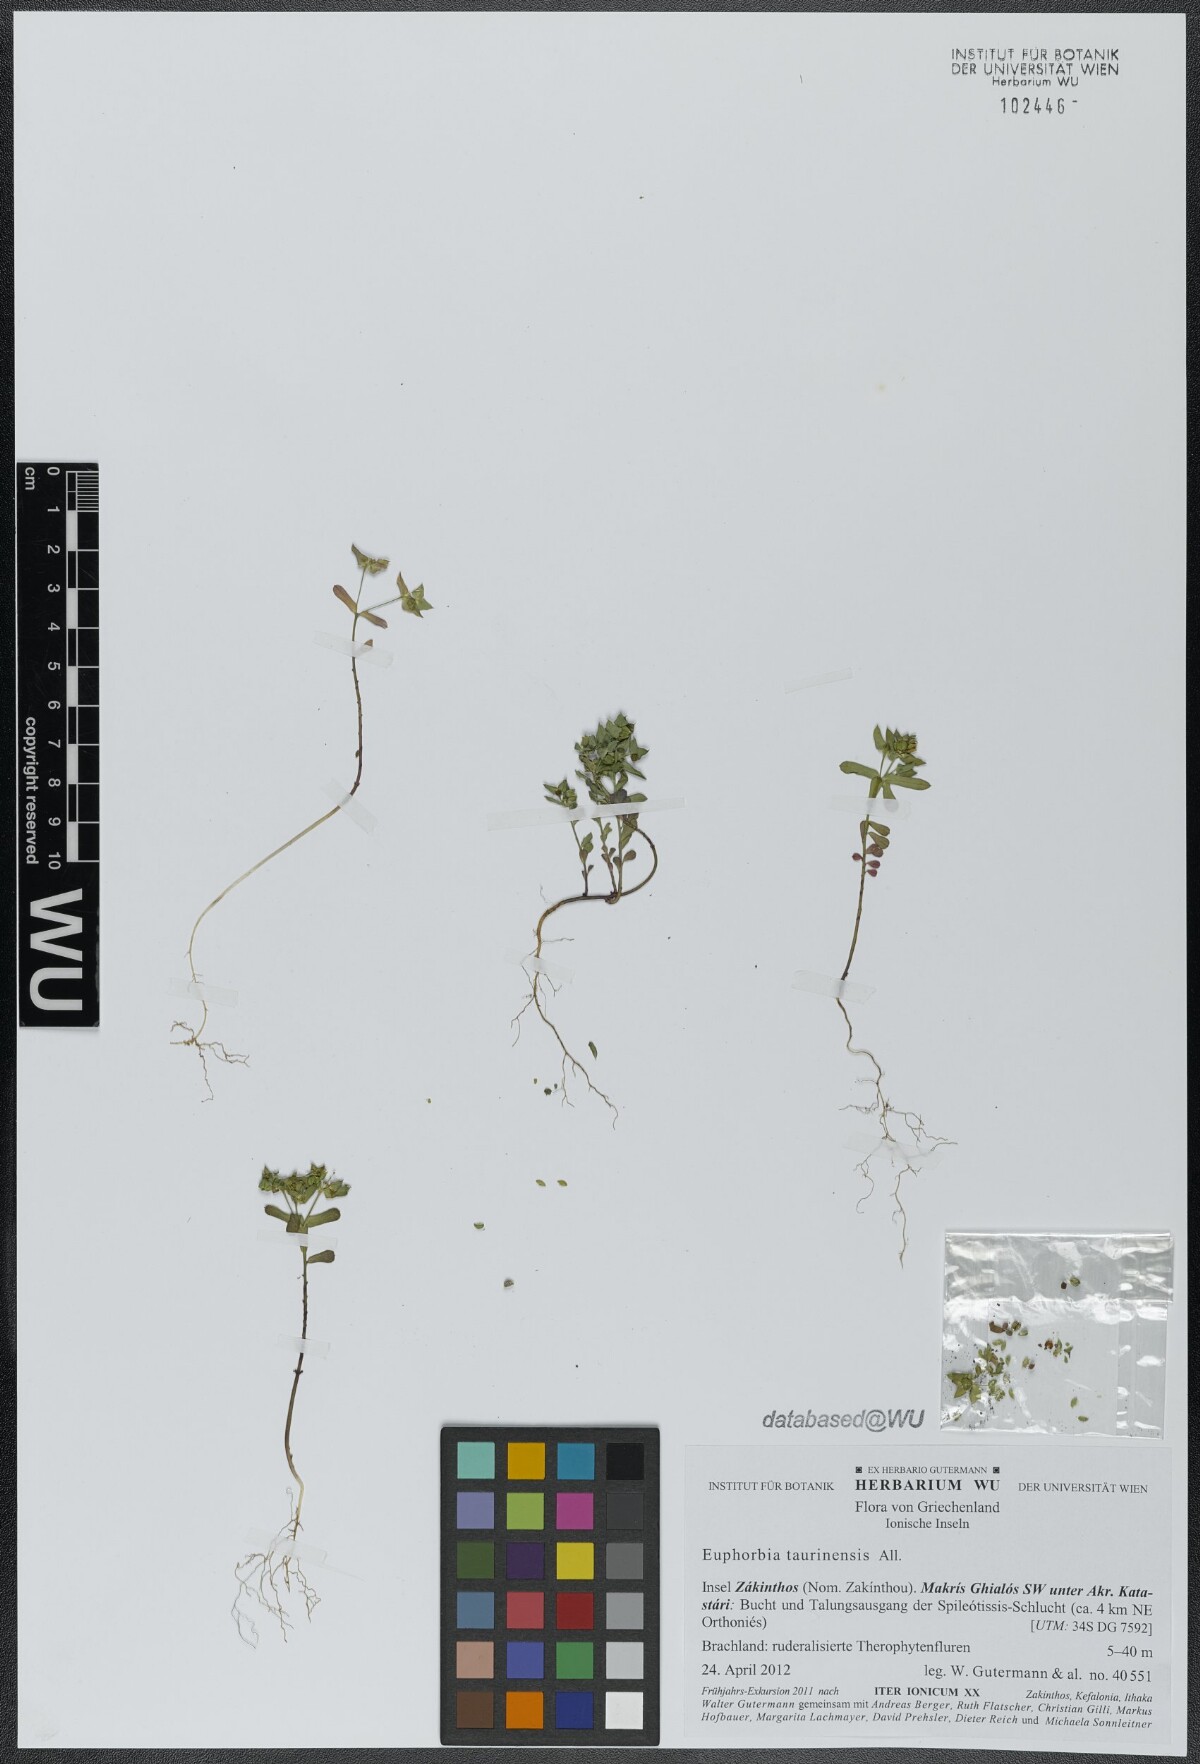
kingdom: Plantae
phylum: Tracheophyta
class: Magnoliopsida
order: Malpighiales
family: Euphorbiaceae
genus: Euphorbia
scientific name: Euphorbia taurinensis
